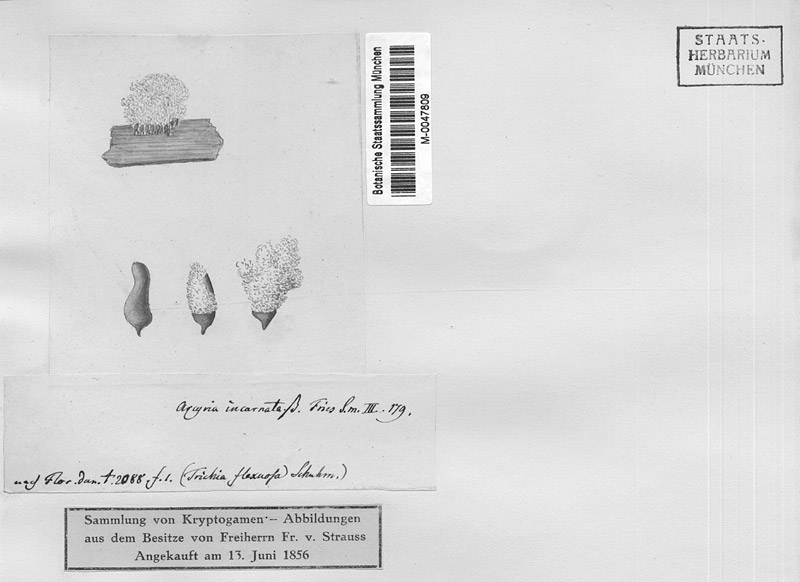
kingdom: Protozoa
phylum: Mycetozoa
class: Myxomycetes
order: Trichiales
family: Arcyriaceae
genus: Arcyria
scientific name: Arcyria incarnata
